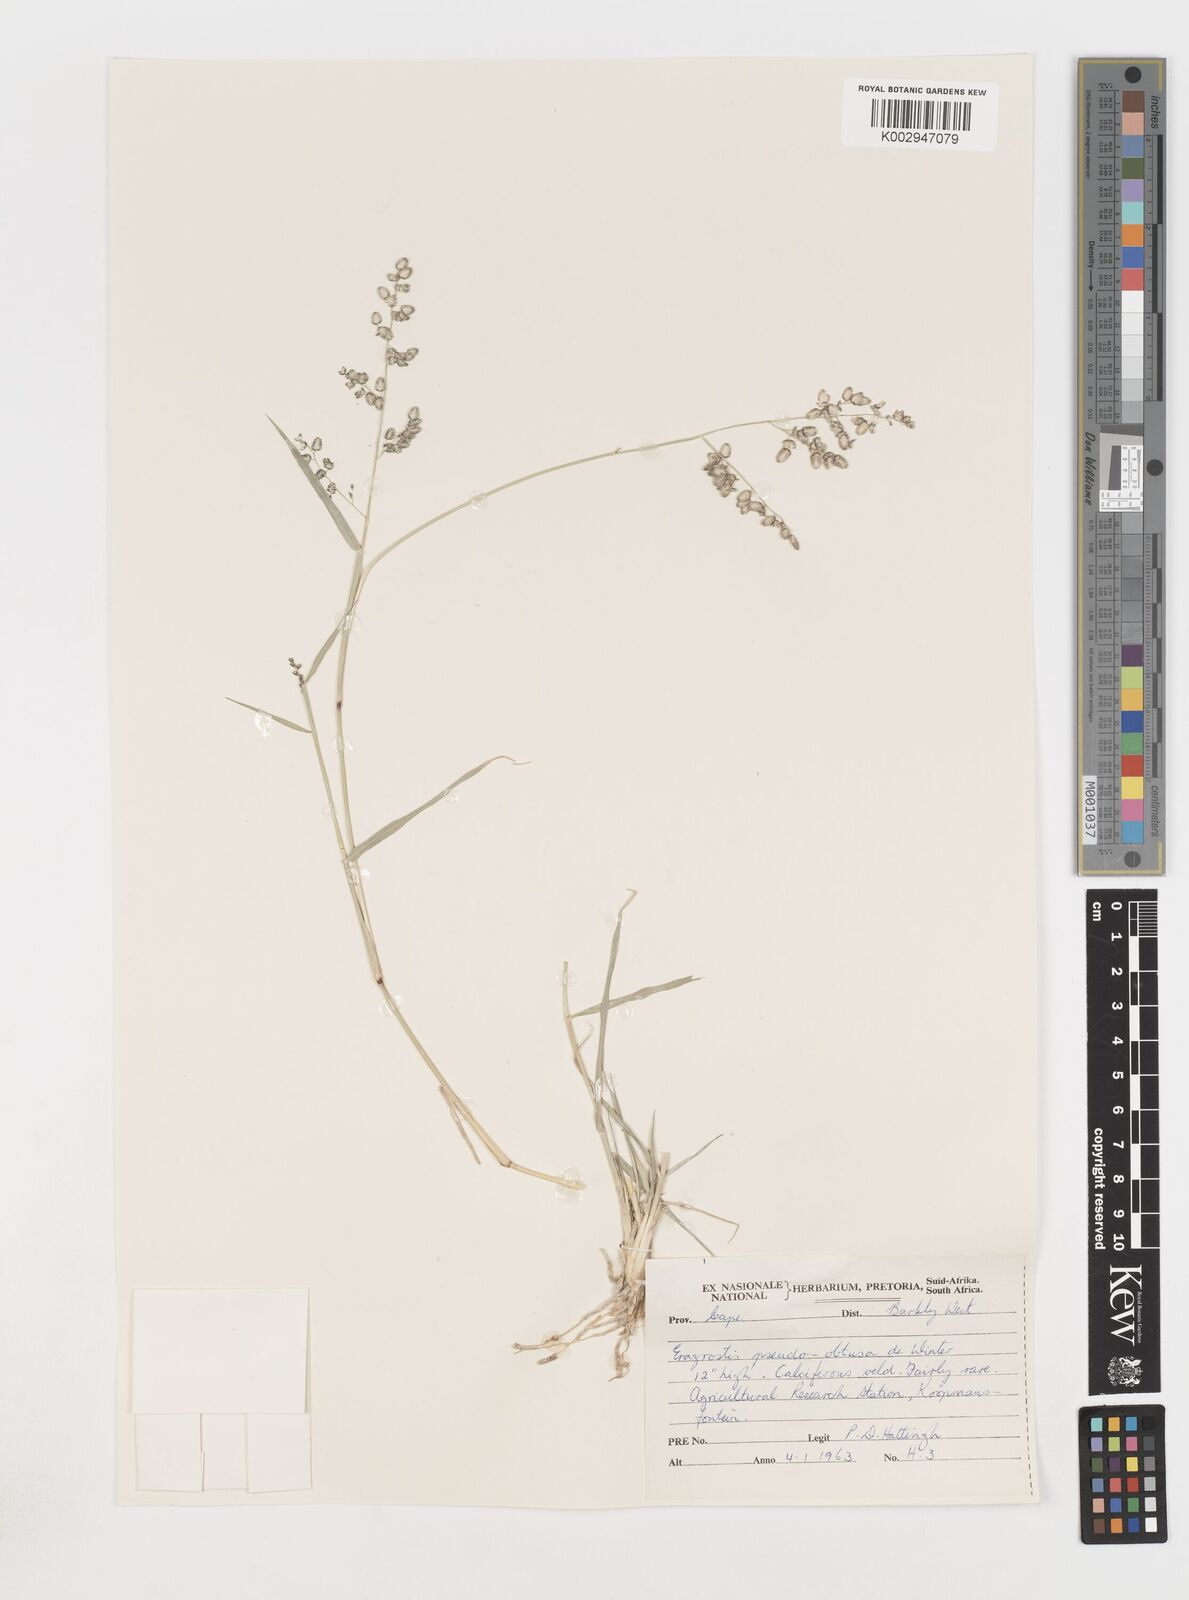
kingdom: Plantae
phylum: Tracheophyta
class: Liliopsida
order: Poales
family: Poaceae
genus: Eragrostis
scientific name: Eragrostis pseudobtusa
